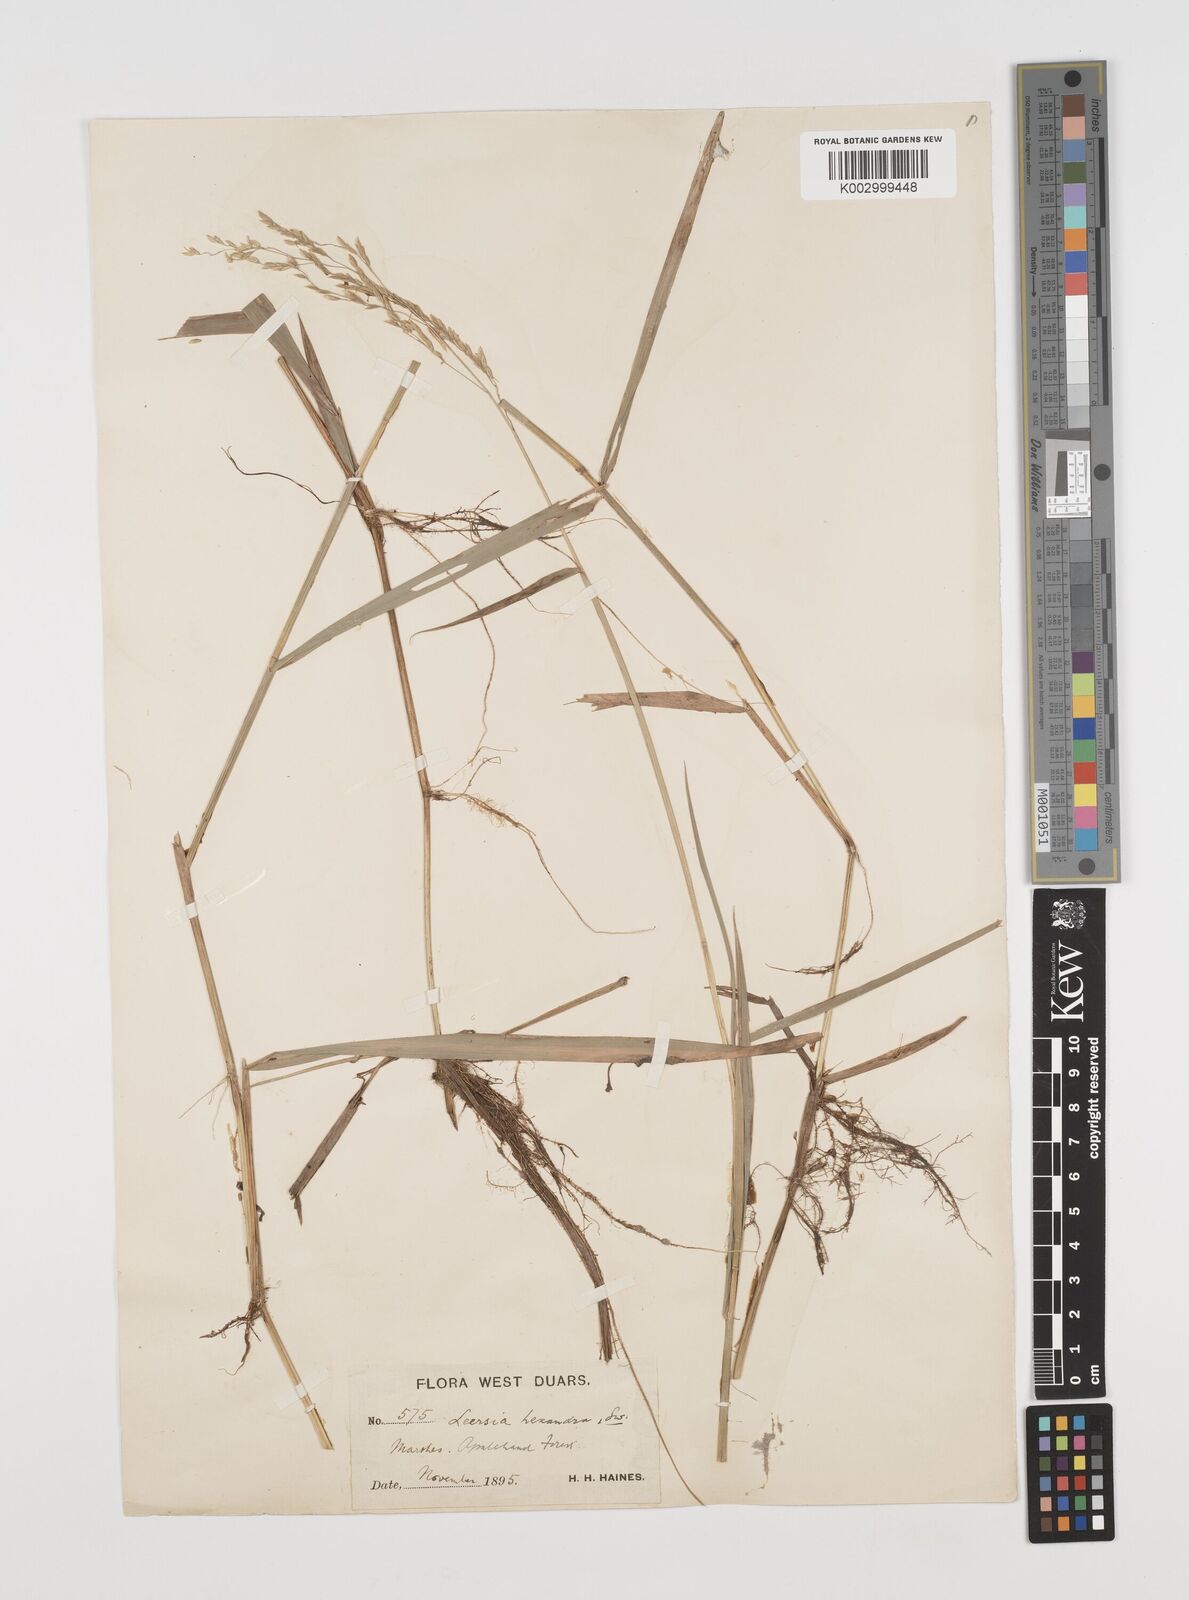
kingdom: Plantae
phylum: Tracheophyta
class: Liliopsida
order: Poales
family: Poaceae
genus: Leersia
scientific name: Leersia hexandra
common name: Southern cut grass
